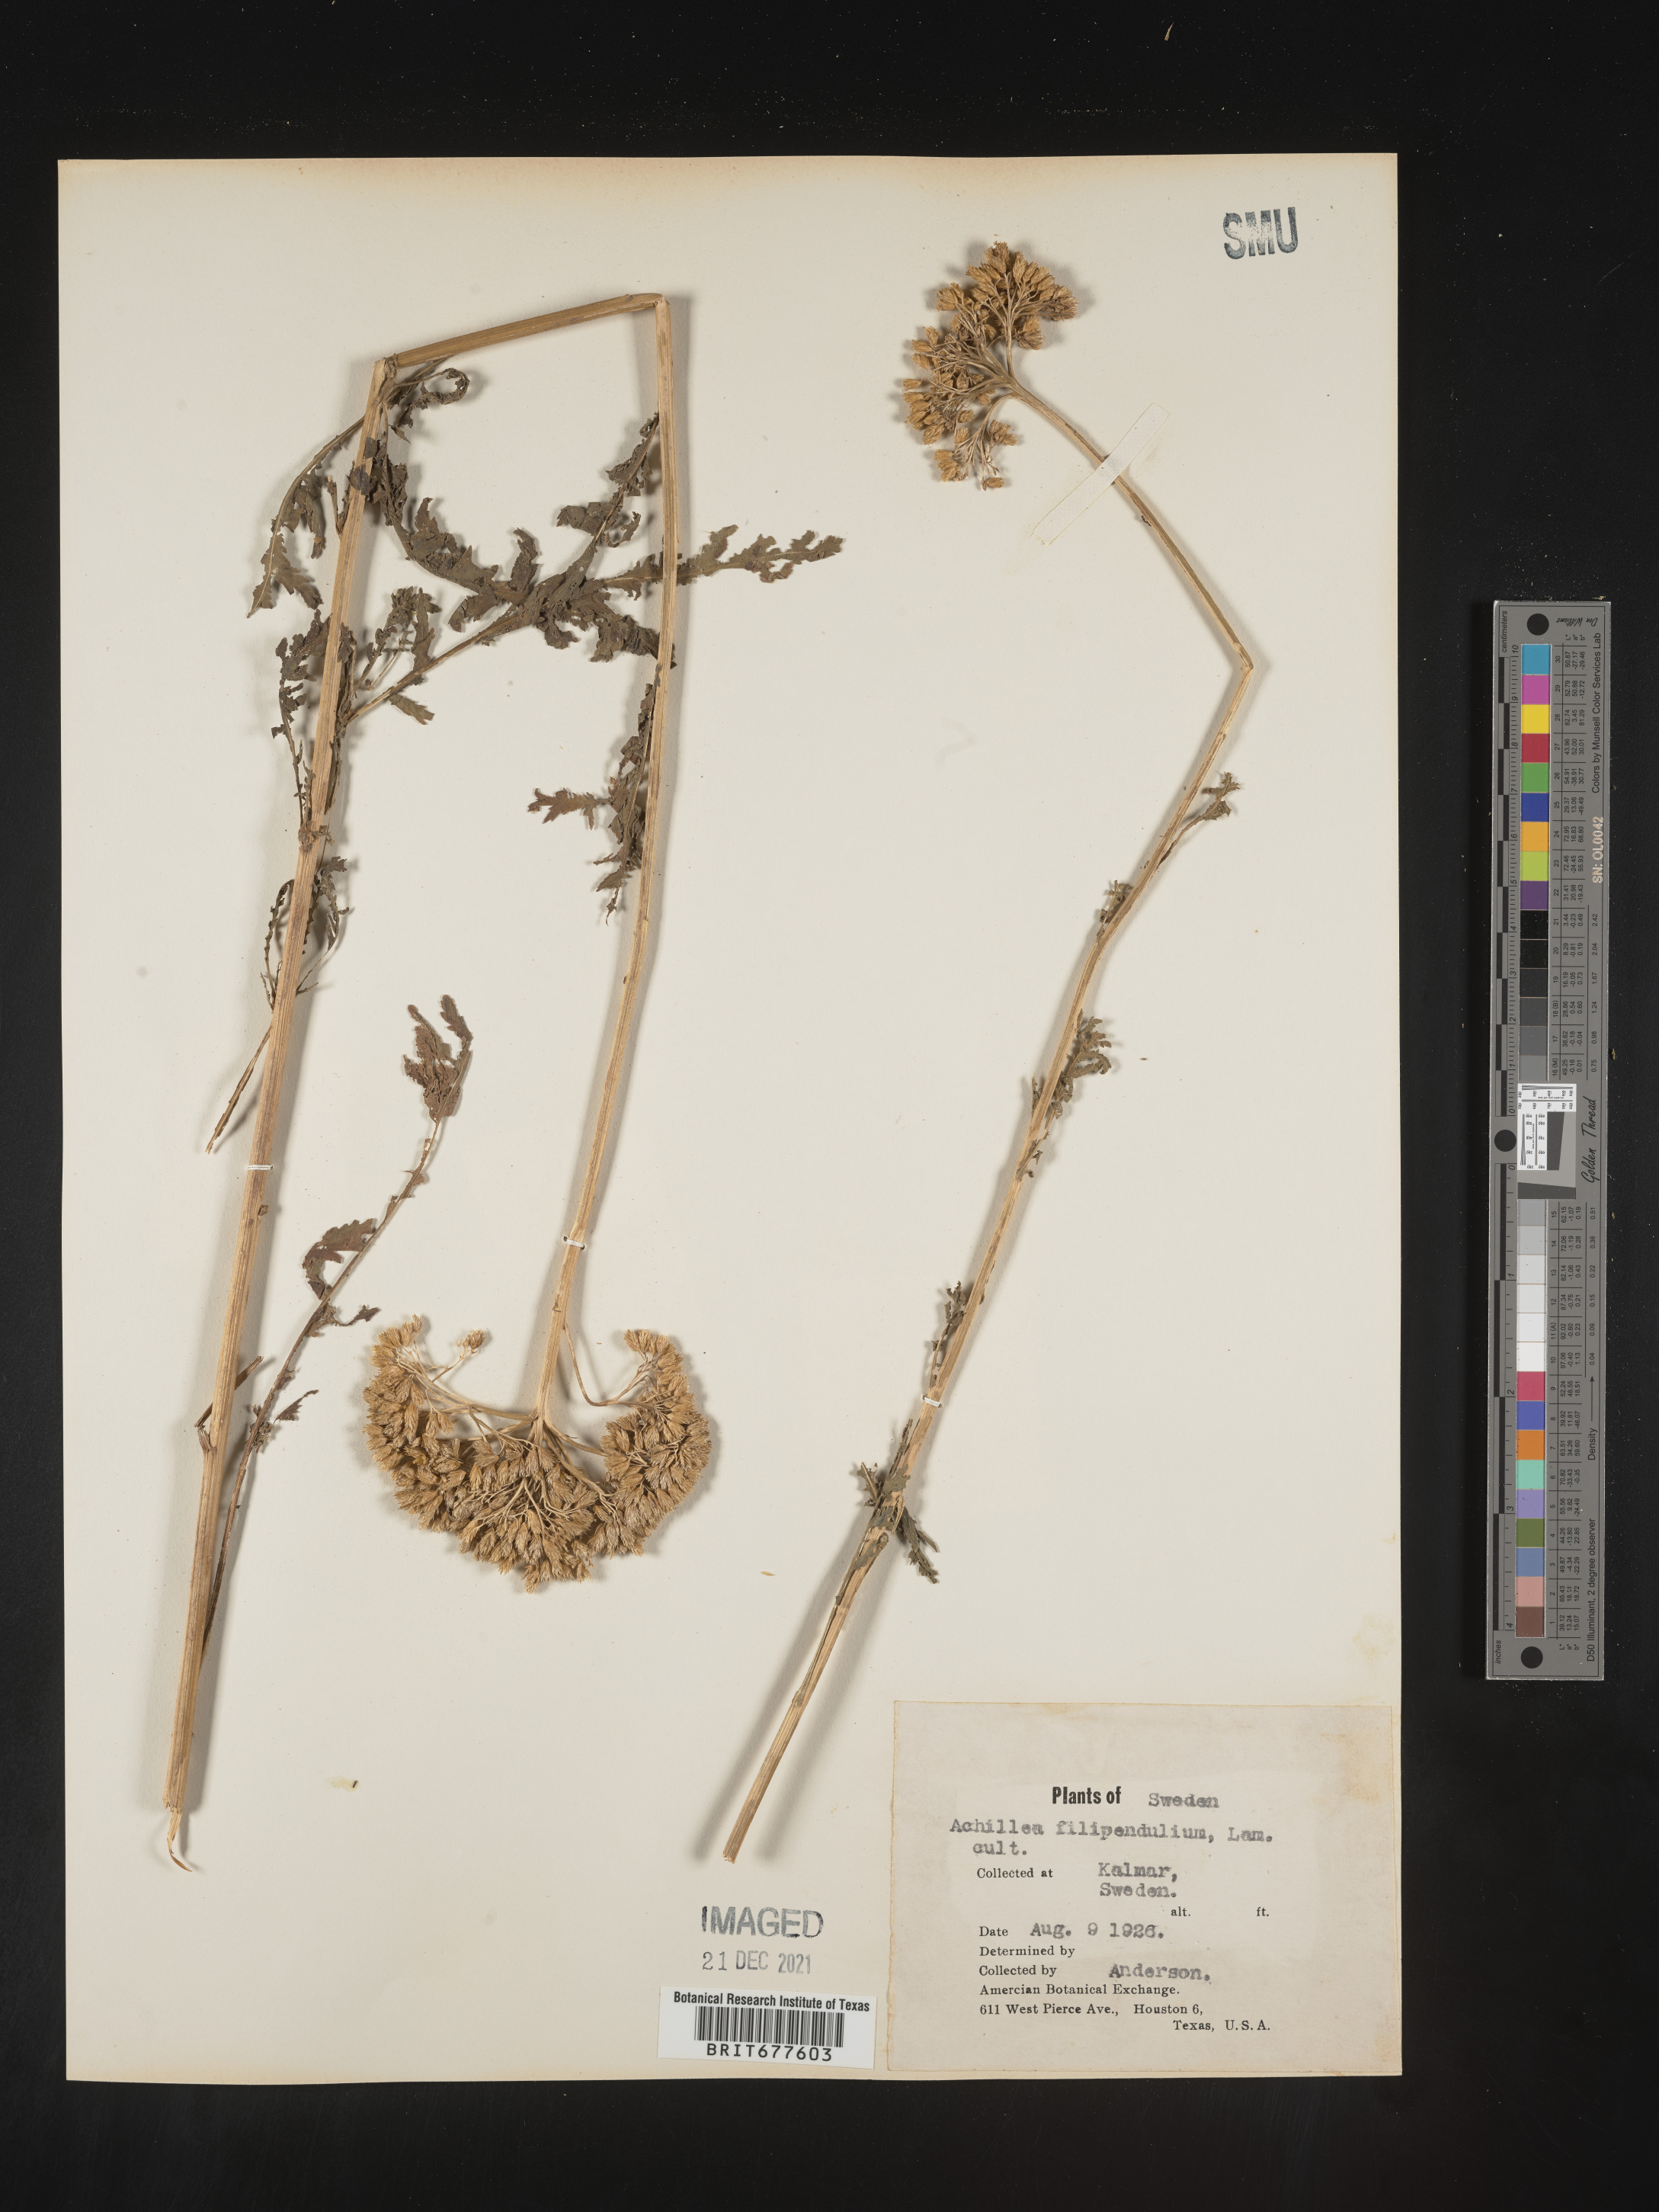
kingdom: Plantae
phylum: Tracheophyta
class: Magnoliopsida
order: Asterales
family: Asteraceae
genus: Achillea
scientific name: Achillea millefolium
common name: Yarrow
